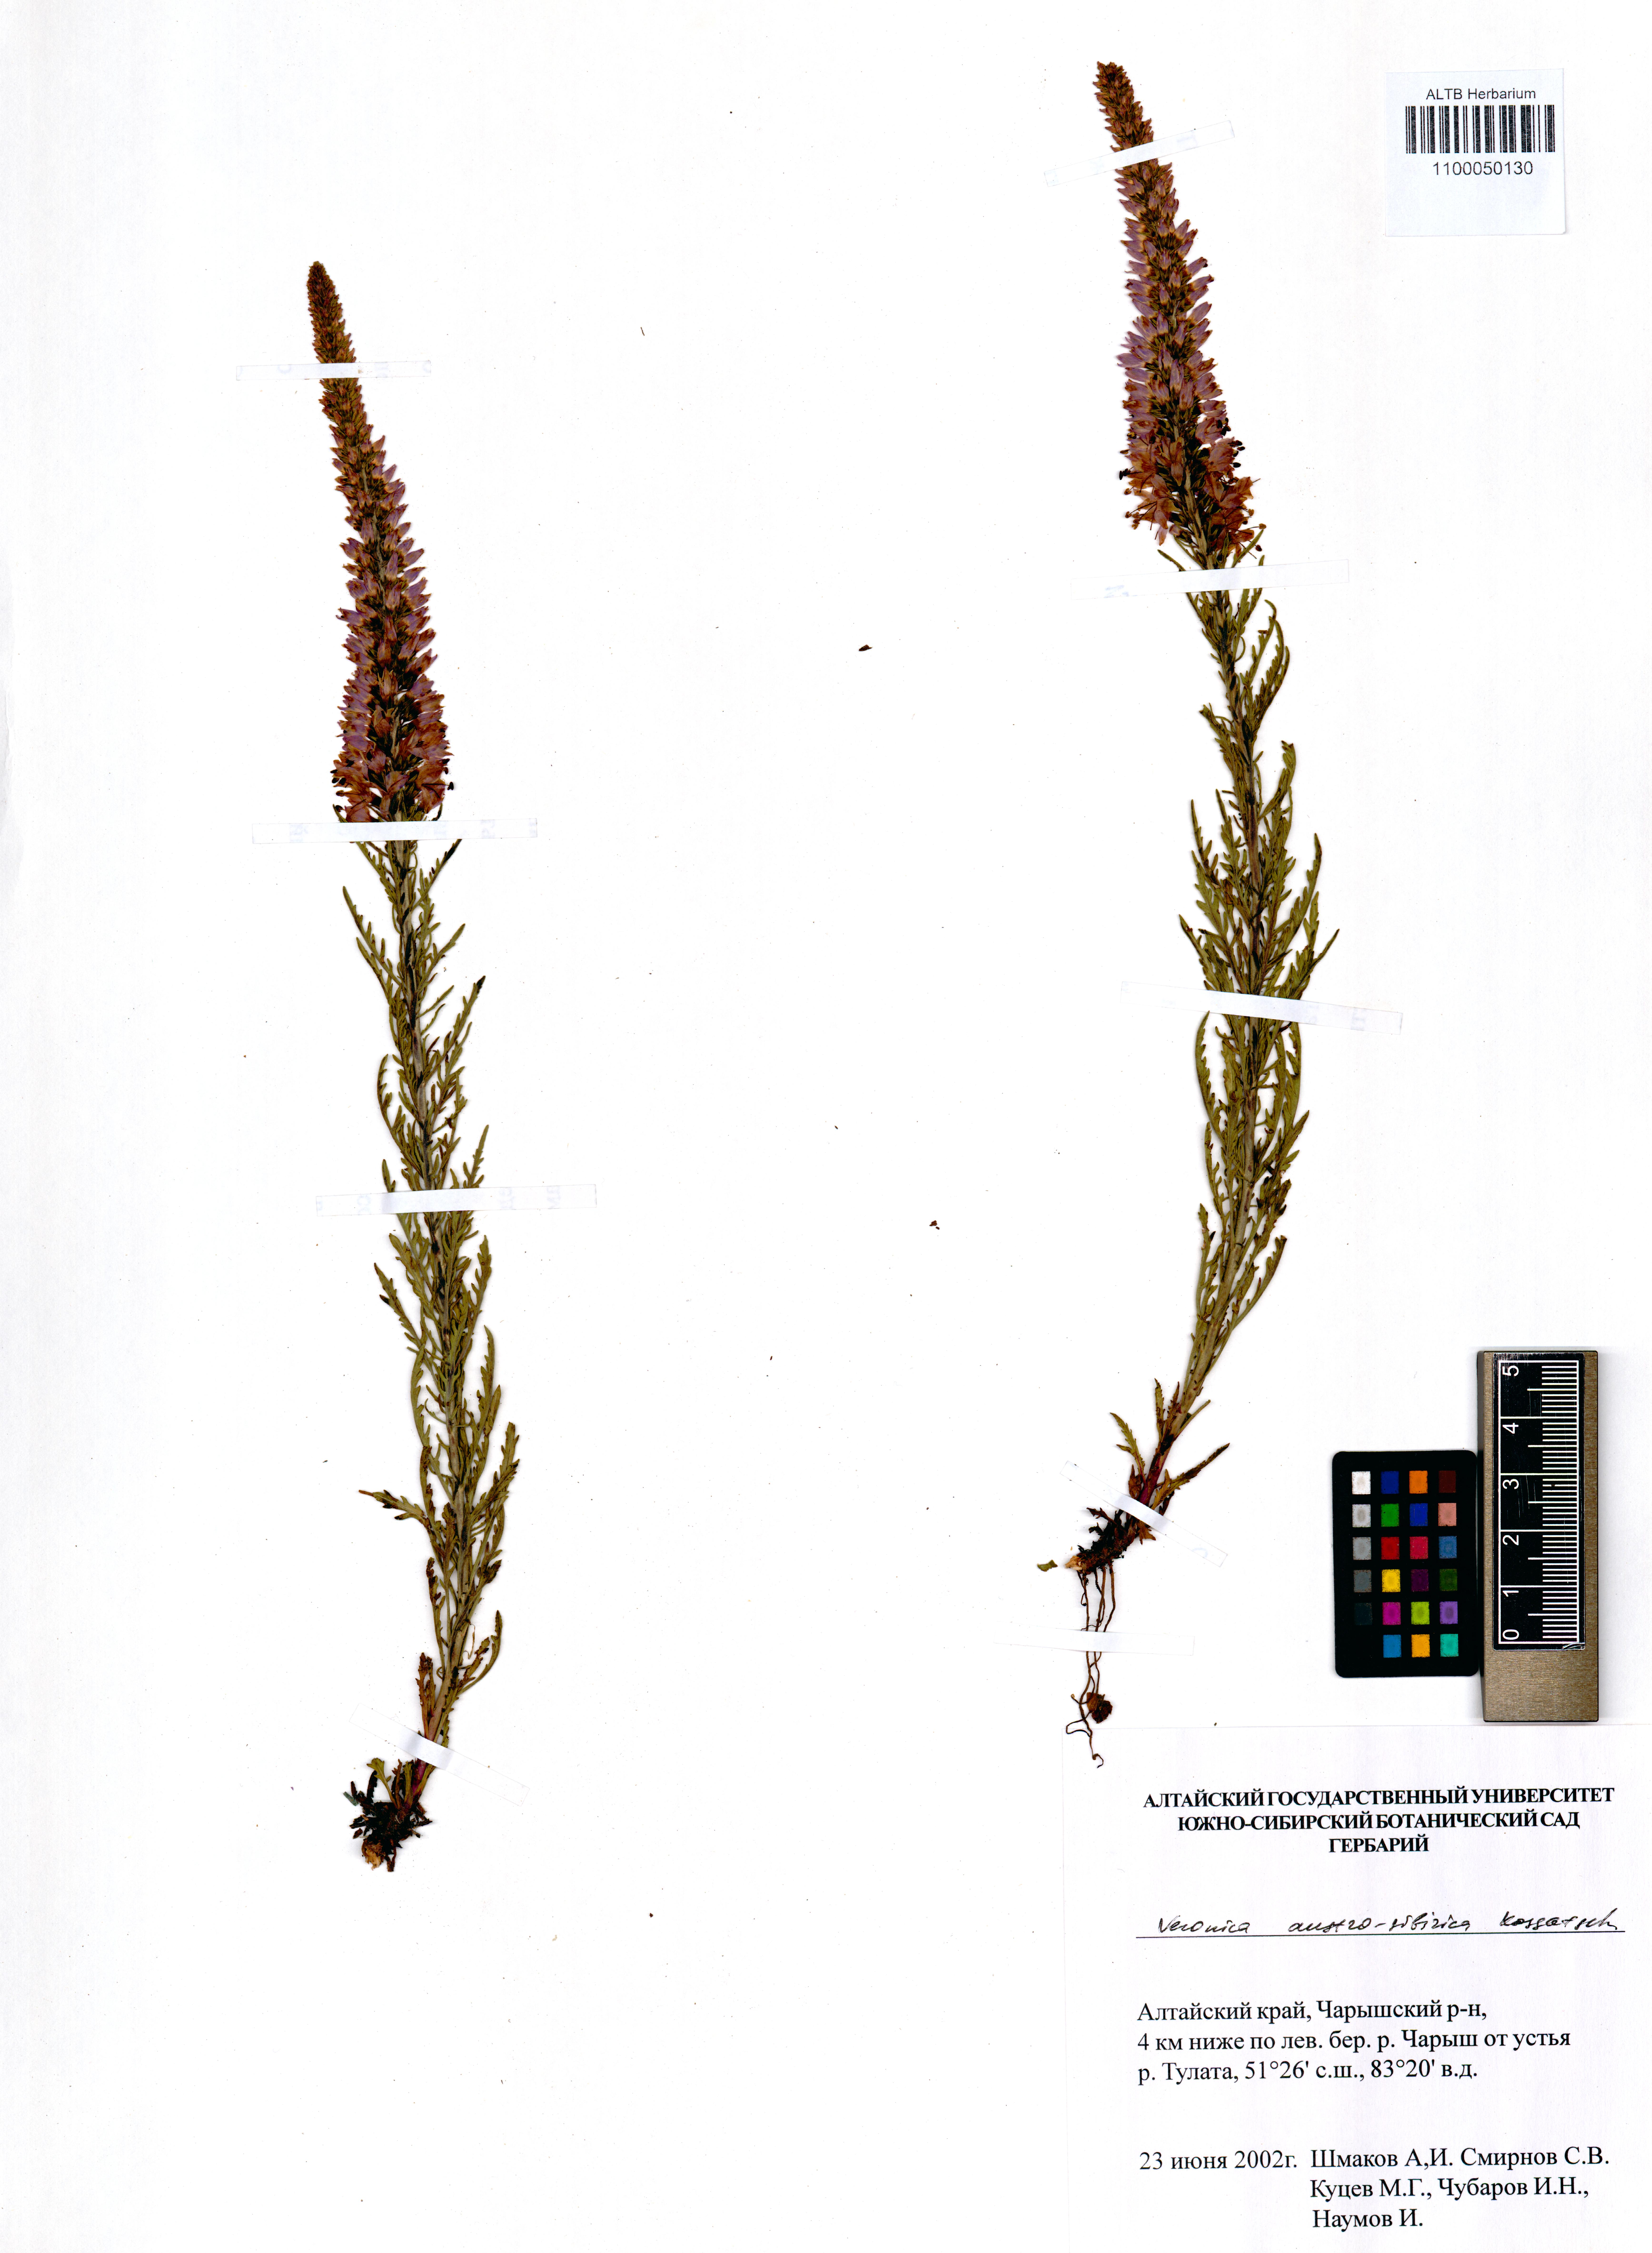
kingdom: Plantae
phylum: Tracheophyta
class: Magnoliopsida
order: Lamiales
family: Plantaginaceae
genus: Veronica
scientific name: Veronica altaica
